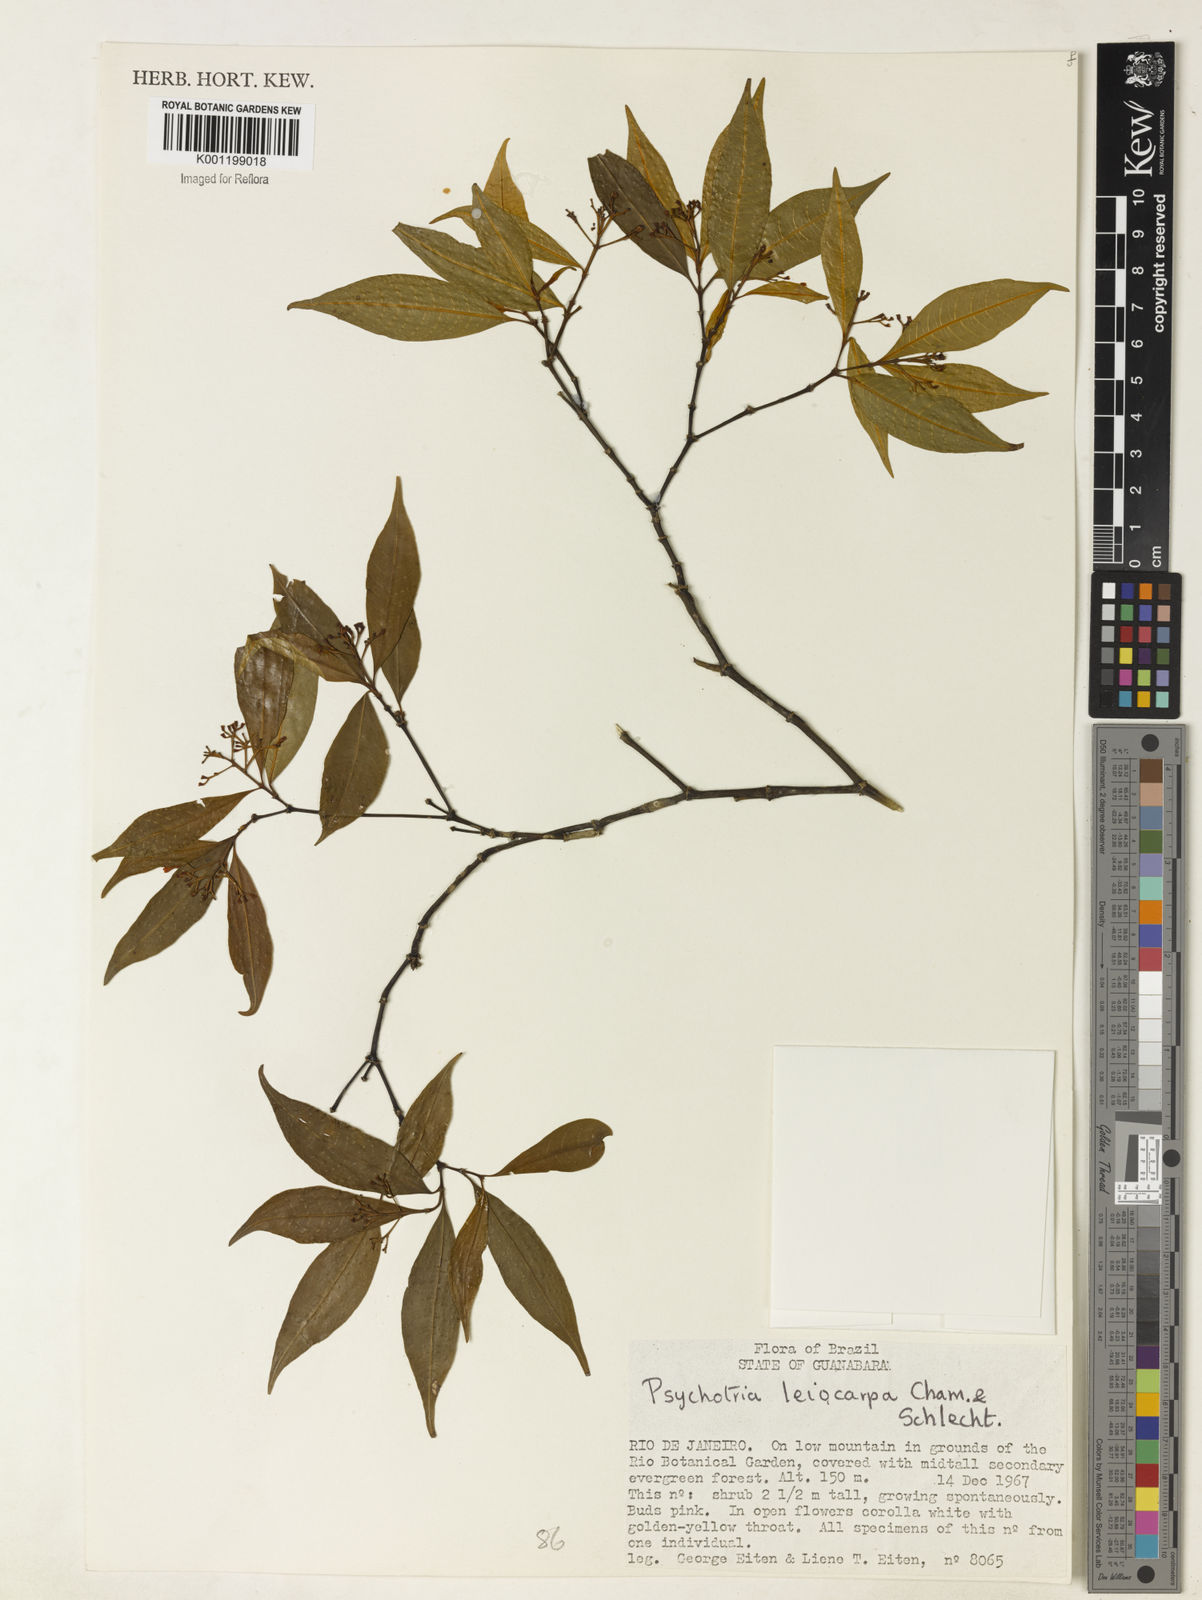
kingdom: Plantae
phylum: Tracheophyta
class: Magnoliopsida
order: Gentianales
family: Rubiaceae
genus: Psychotria
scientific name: Psychotria leiocarpa
